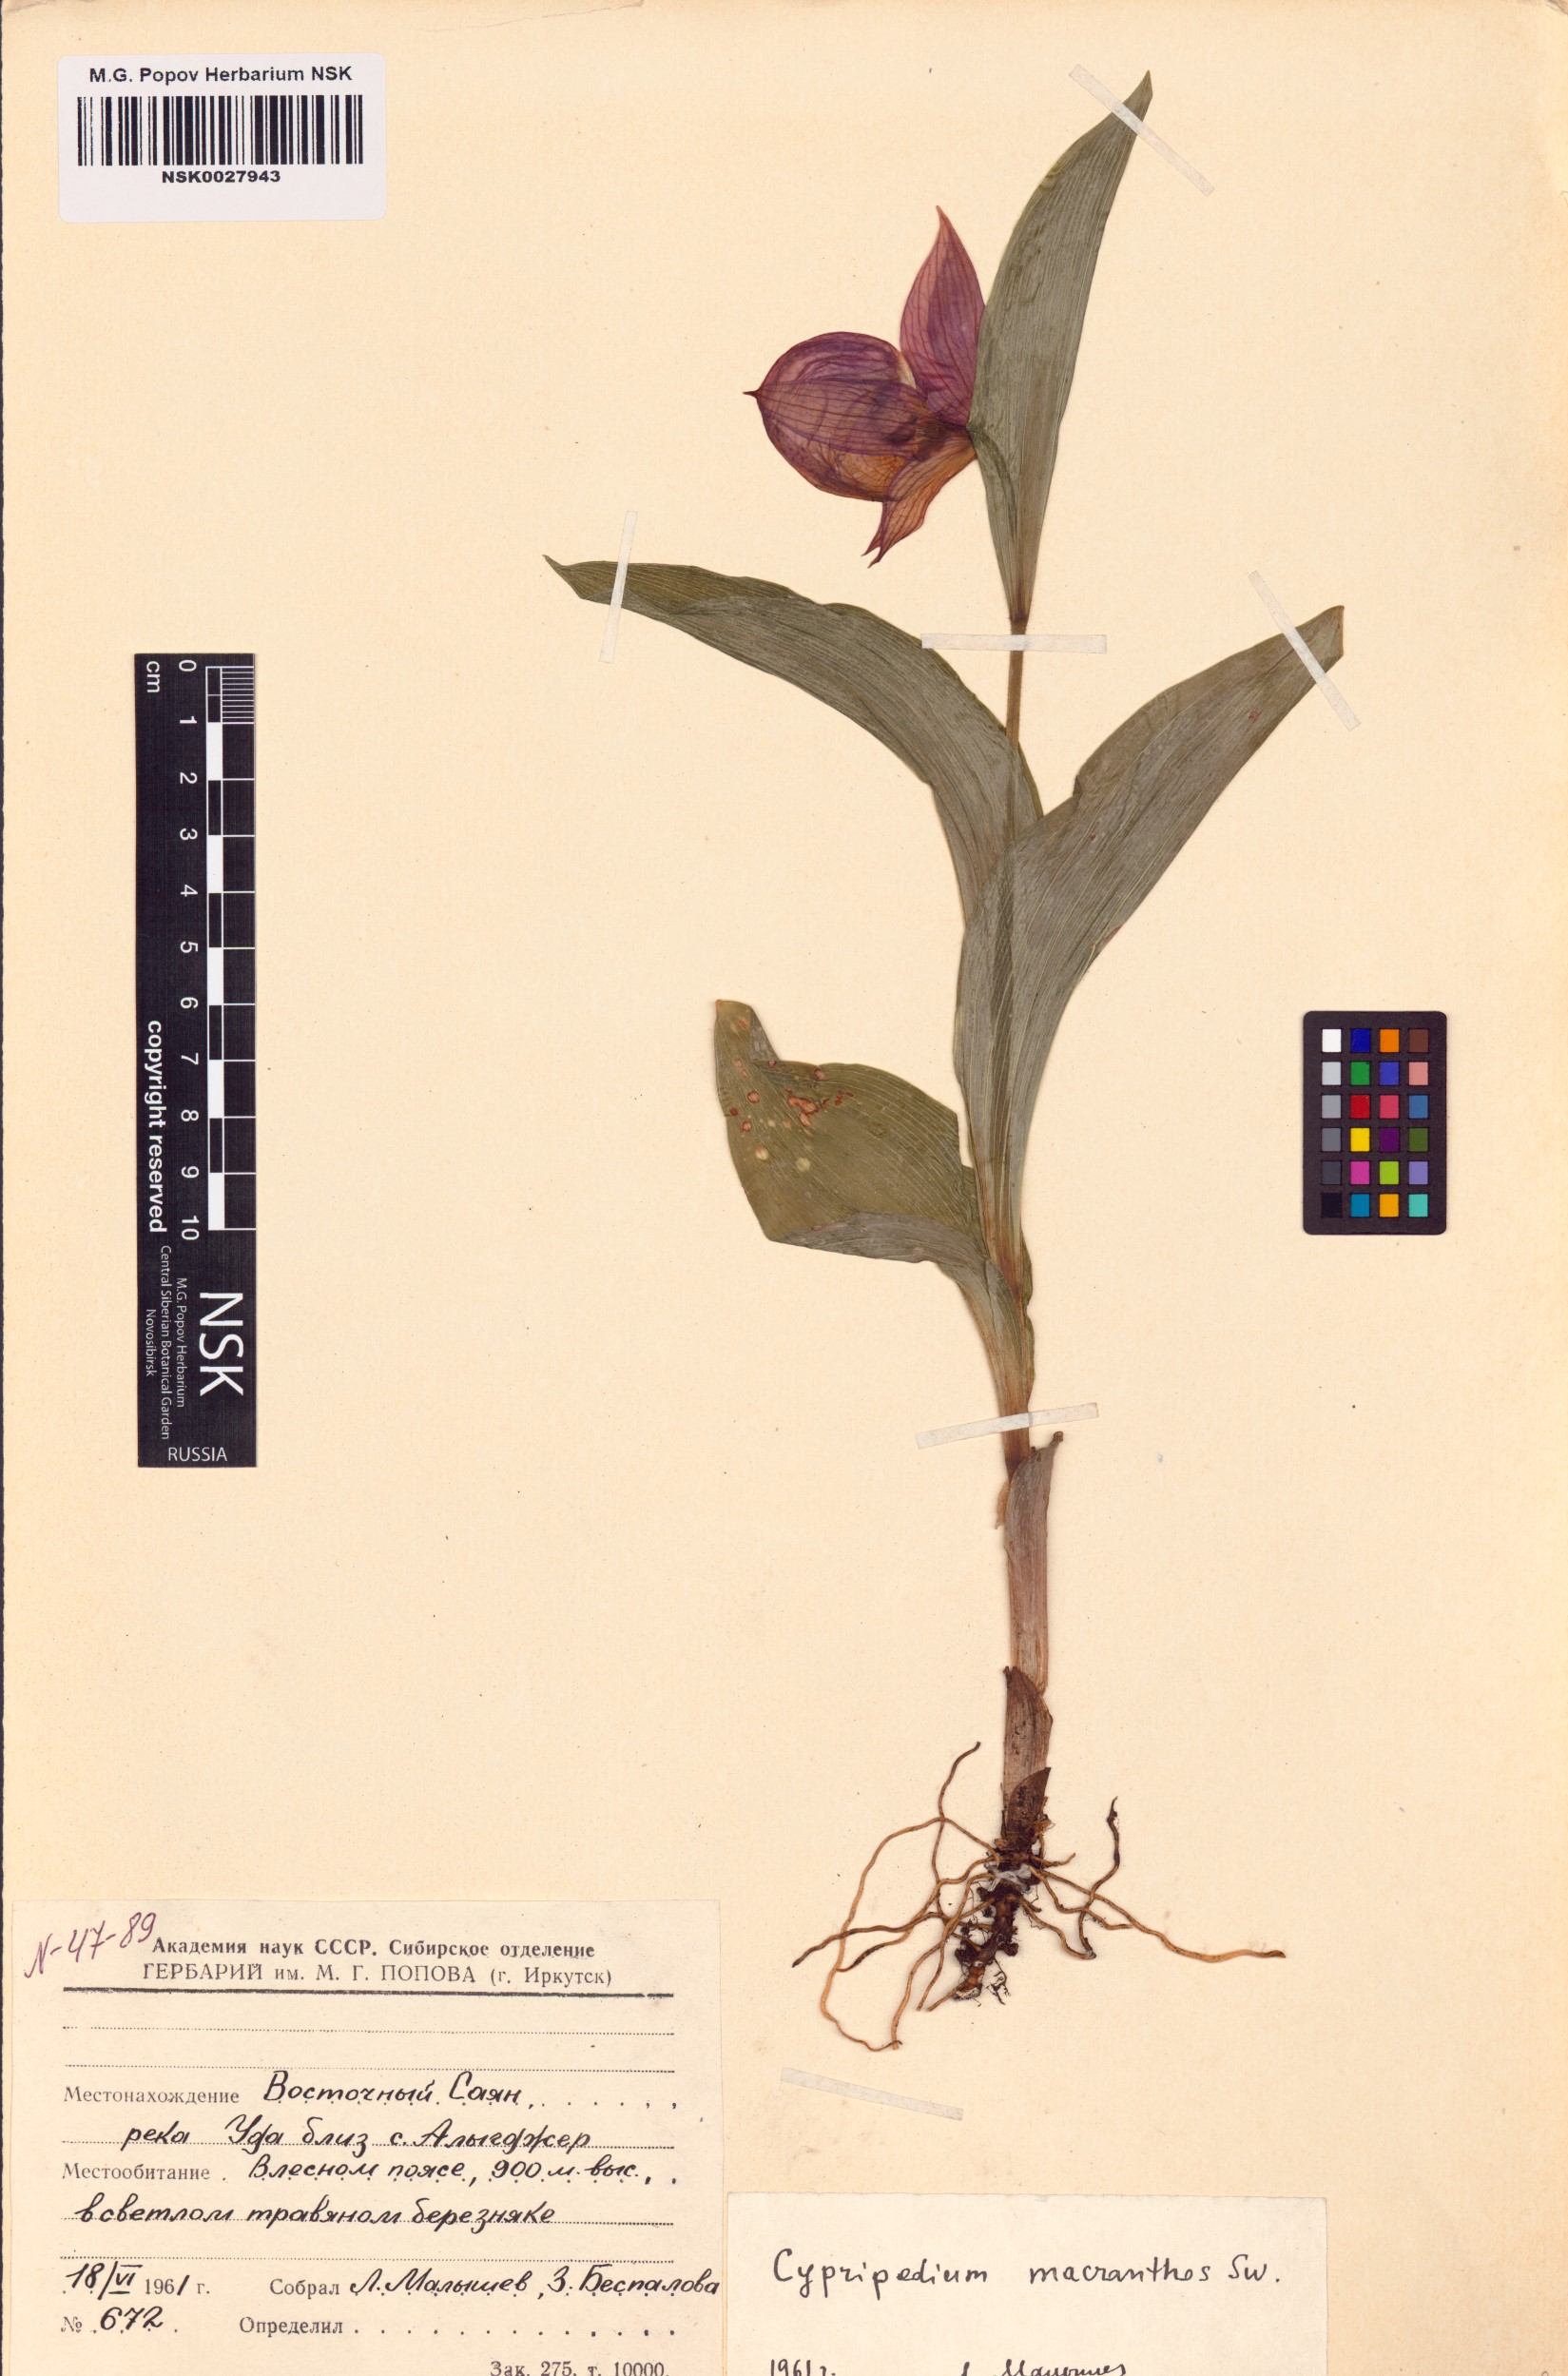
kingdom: Plantae
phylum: Tracheophyta
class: Liliopsida
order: Asparagales
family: Orchidaceae
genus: Cypripedium
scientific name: Cypripedium macranthos
